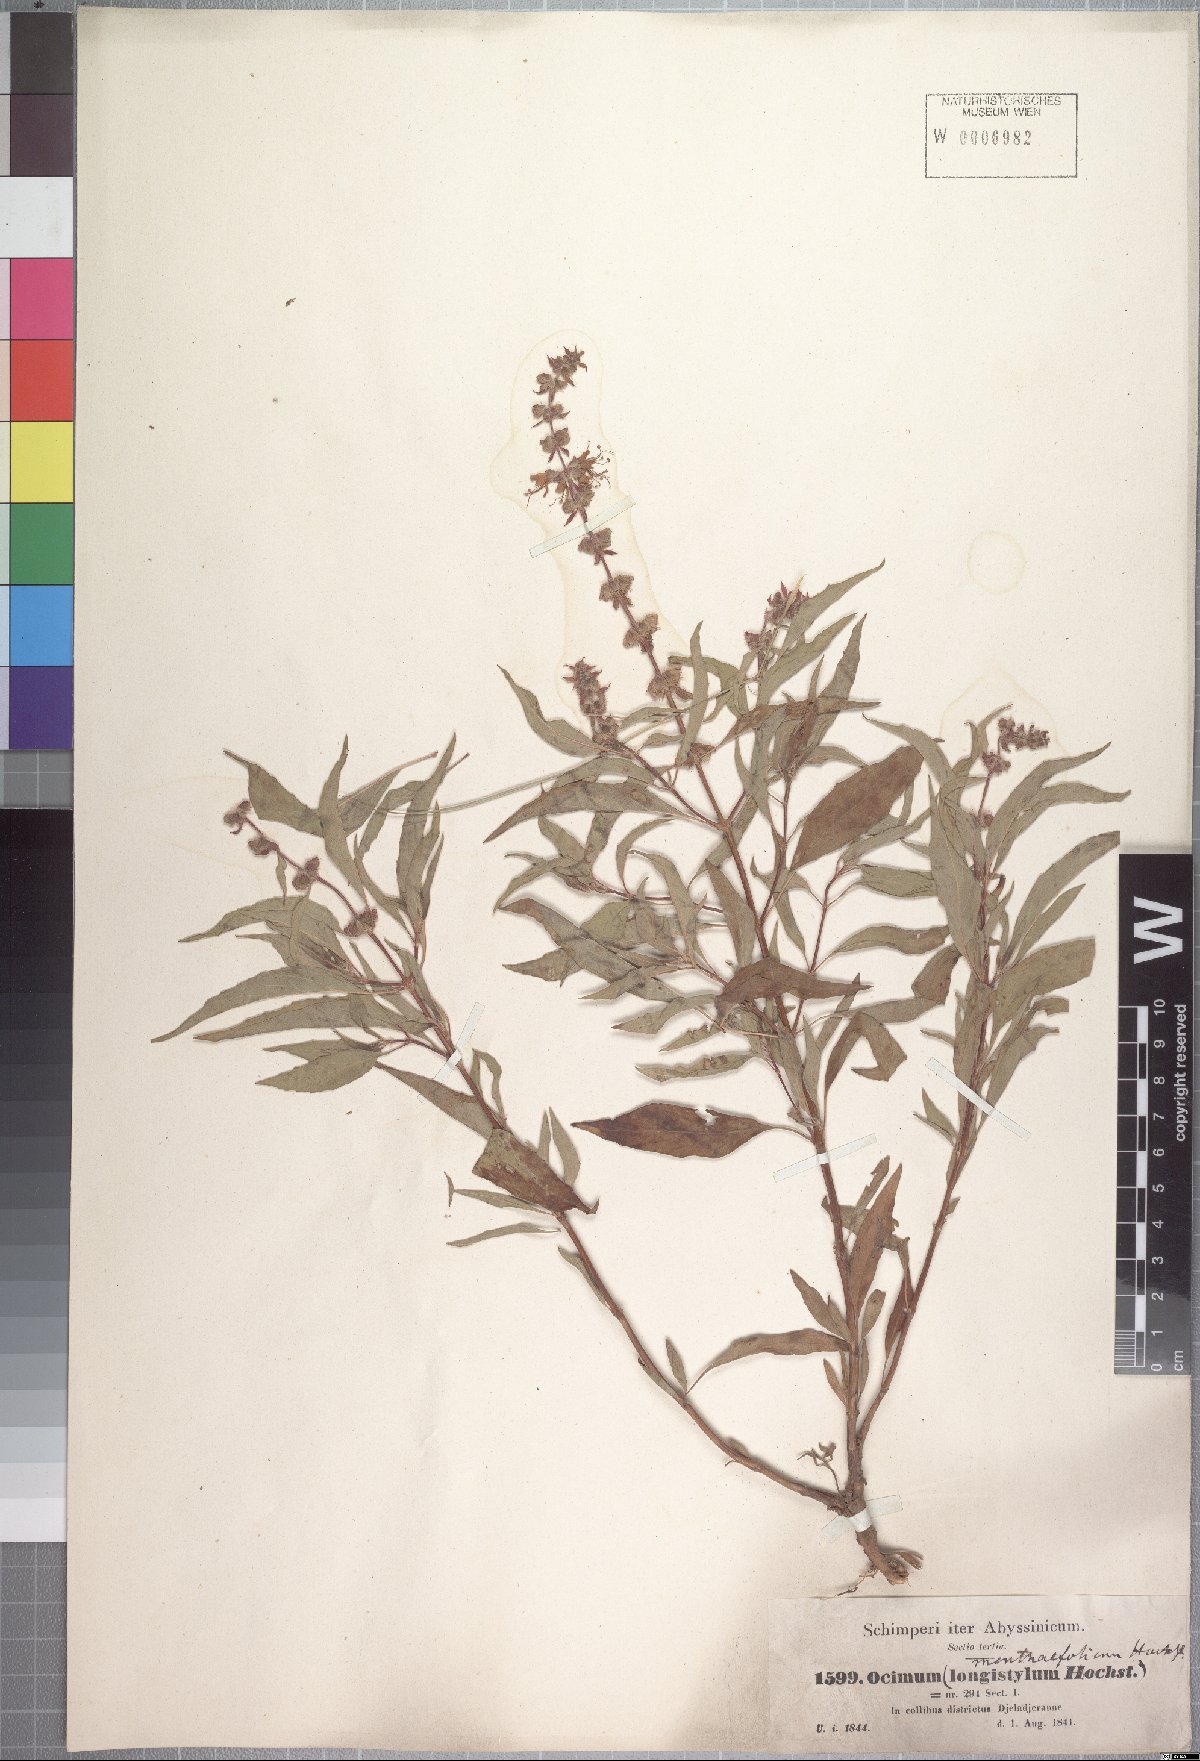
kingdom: Plantae
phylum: Tracheophyta
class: Magnoliopsida
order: Lamiales
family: Lamiaceae
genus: Ocimum
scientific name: Ocimum forskoelei
